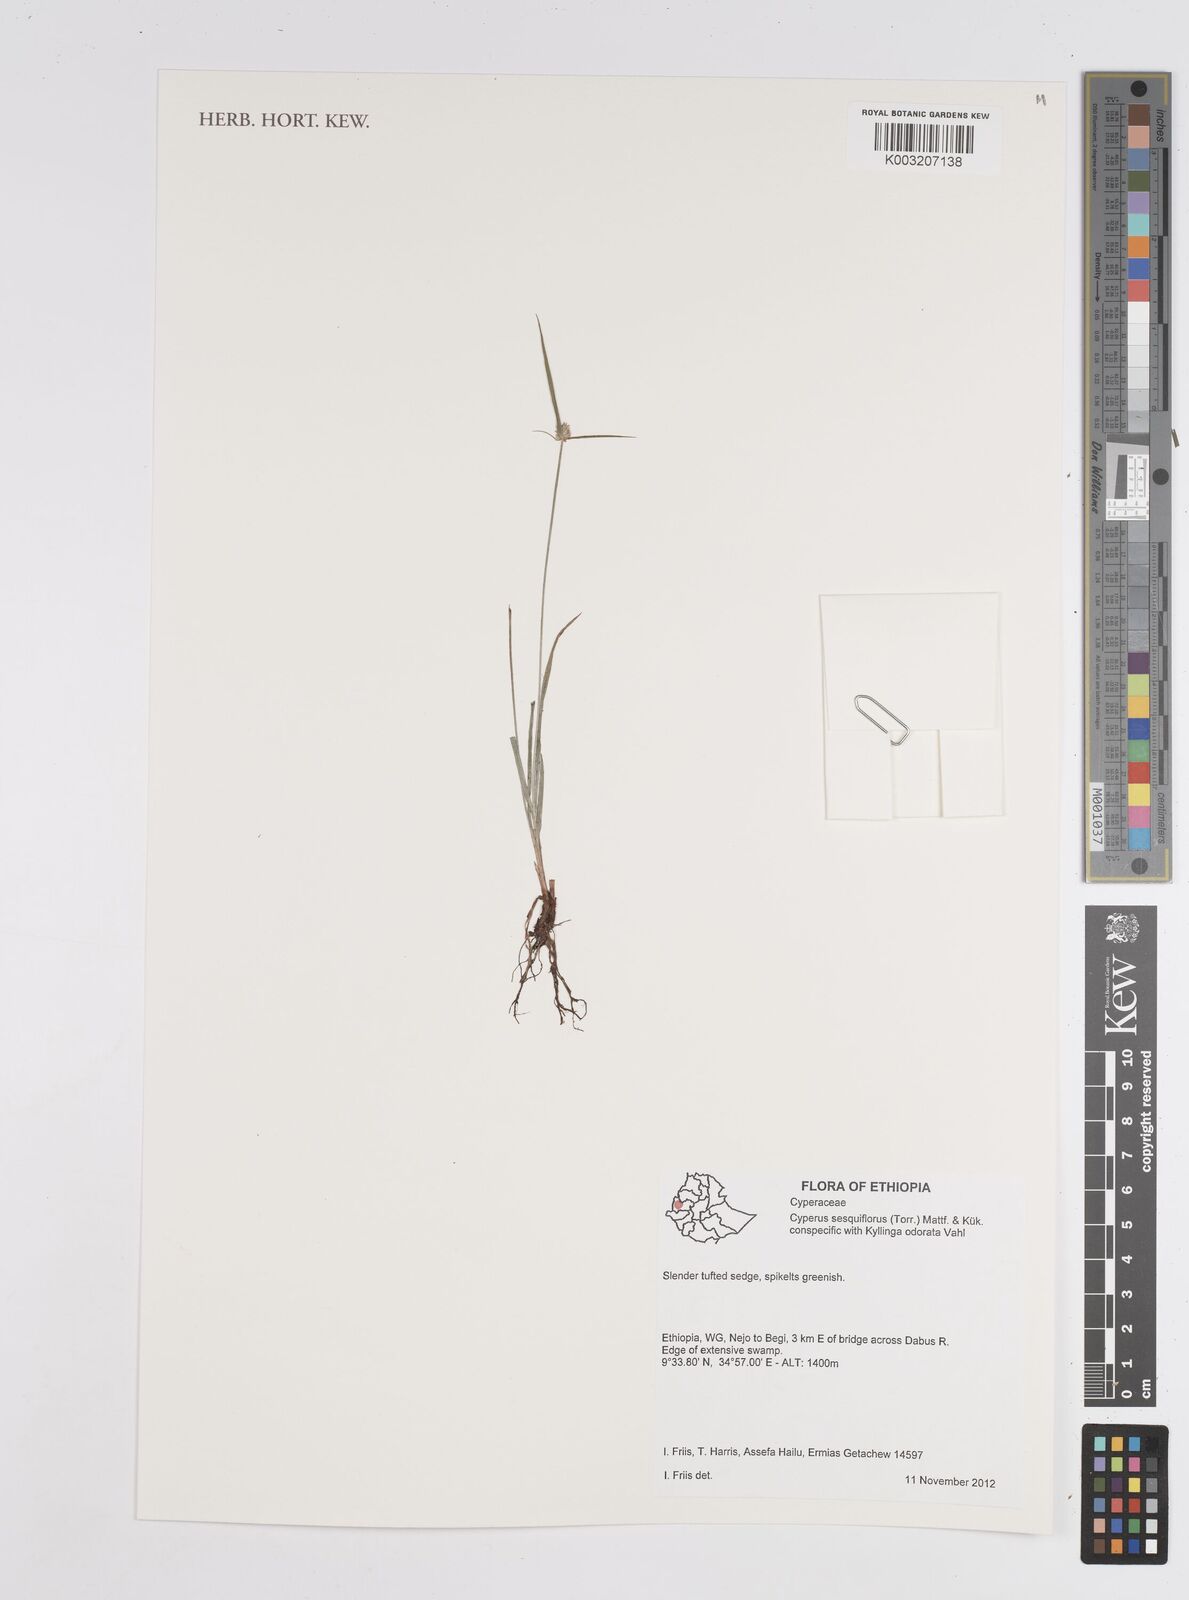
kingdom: Plantae
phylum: Tracheophyta
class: Liliopsida
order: Poales
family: Cyperaceae
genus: Cyperus
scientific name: Cyperus odoratus
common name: Fragrant flatsedge
